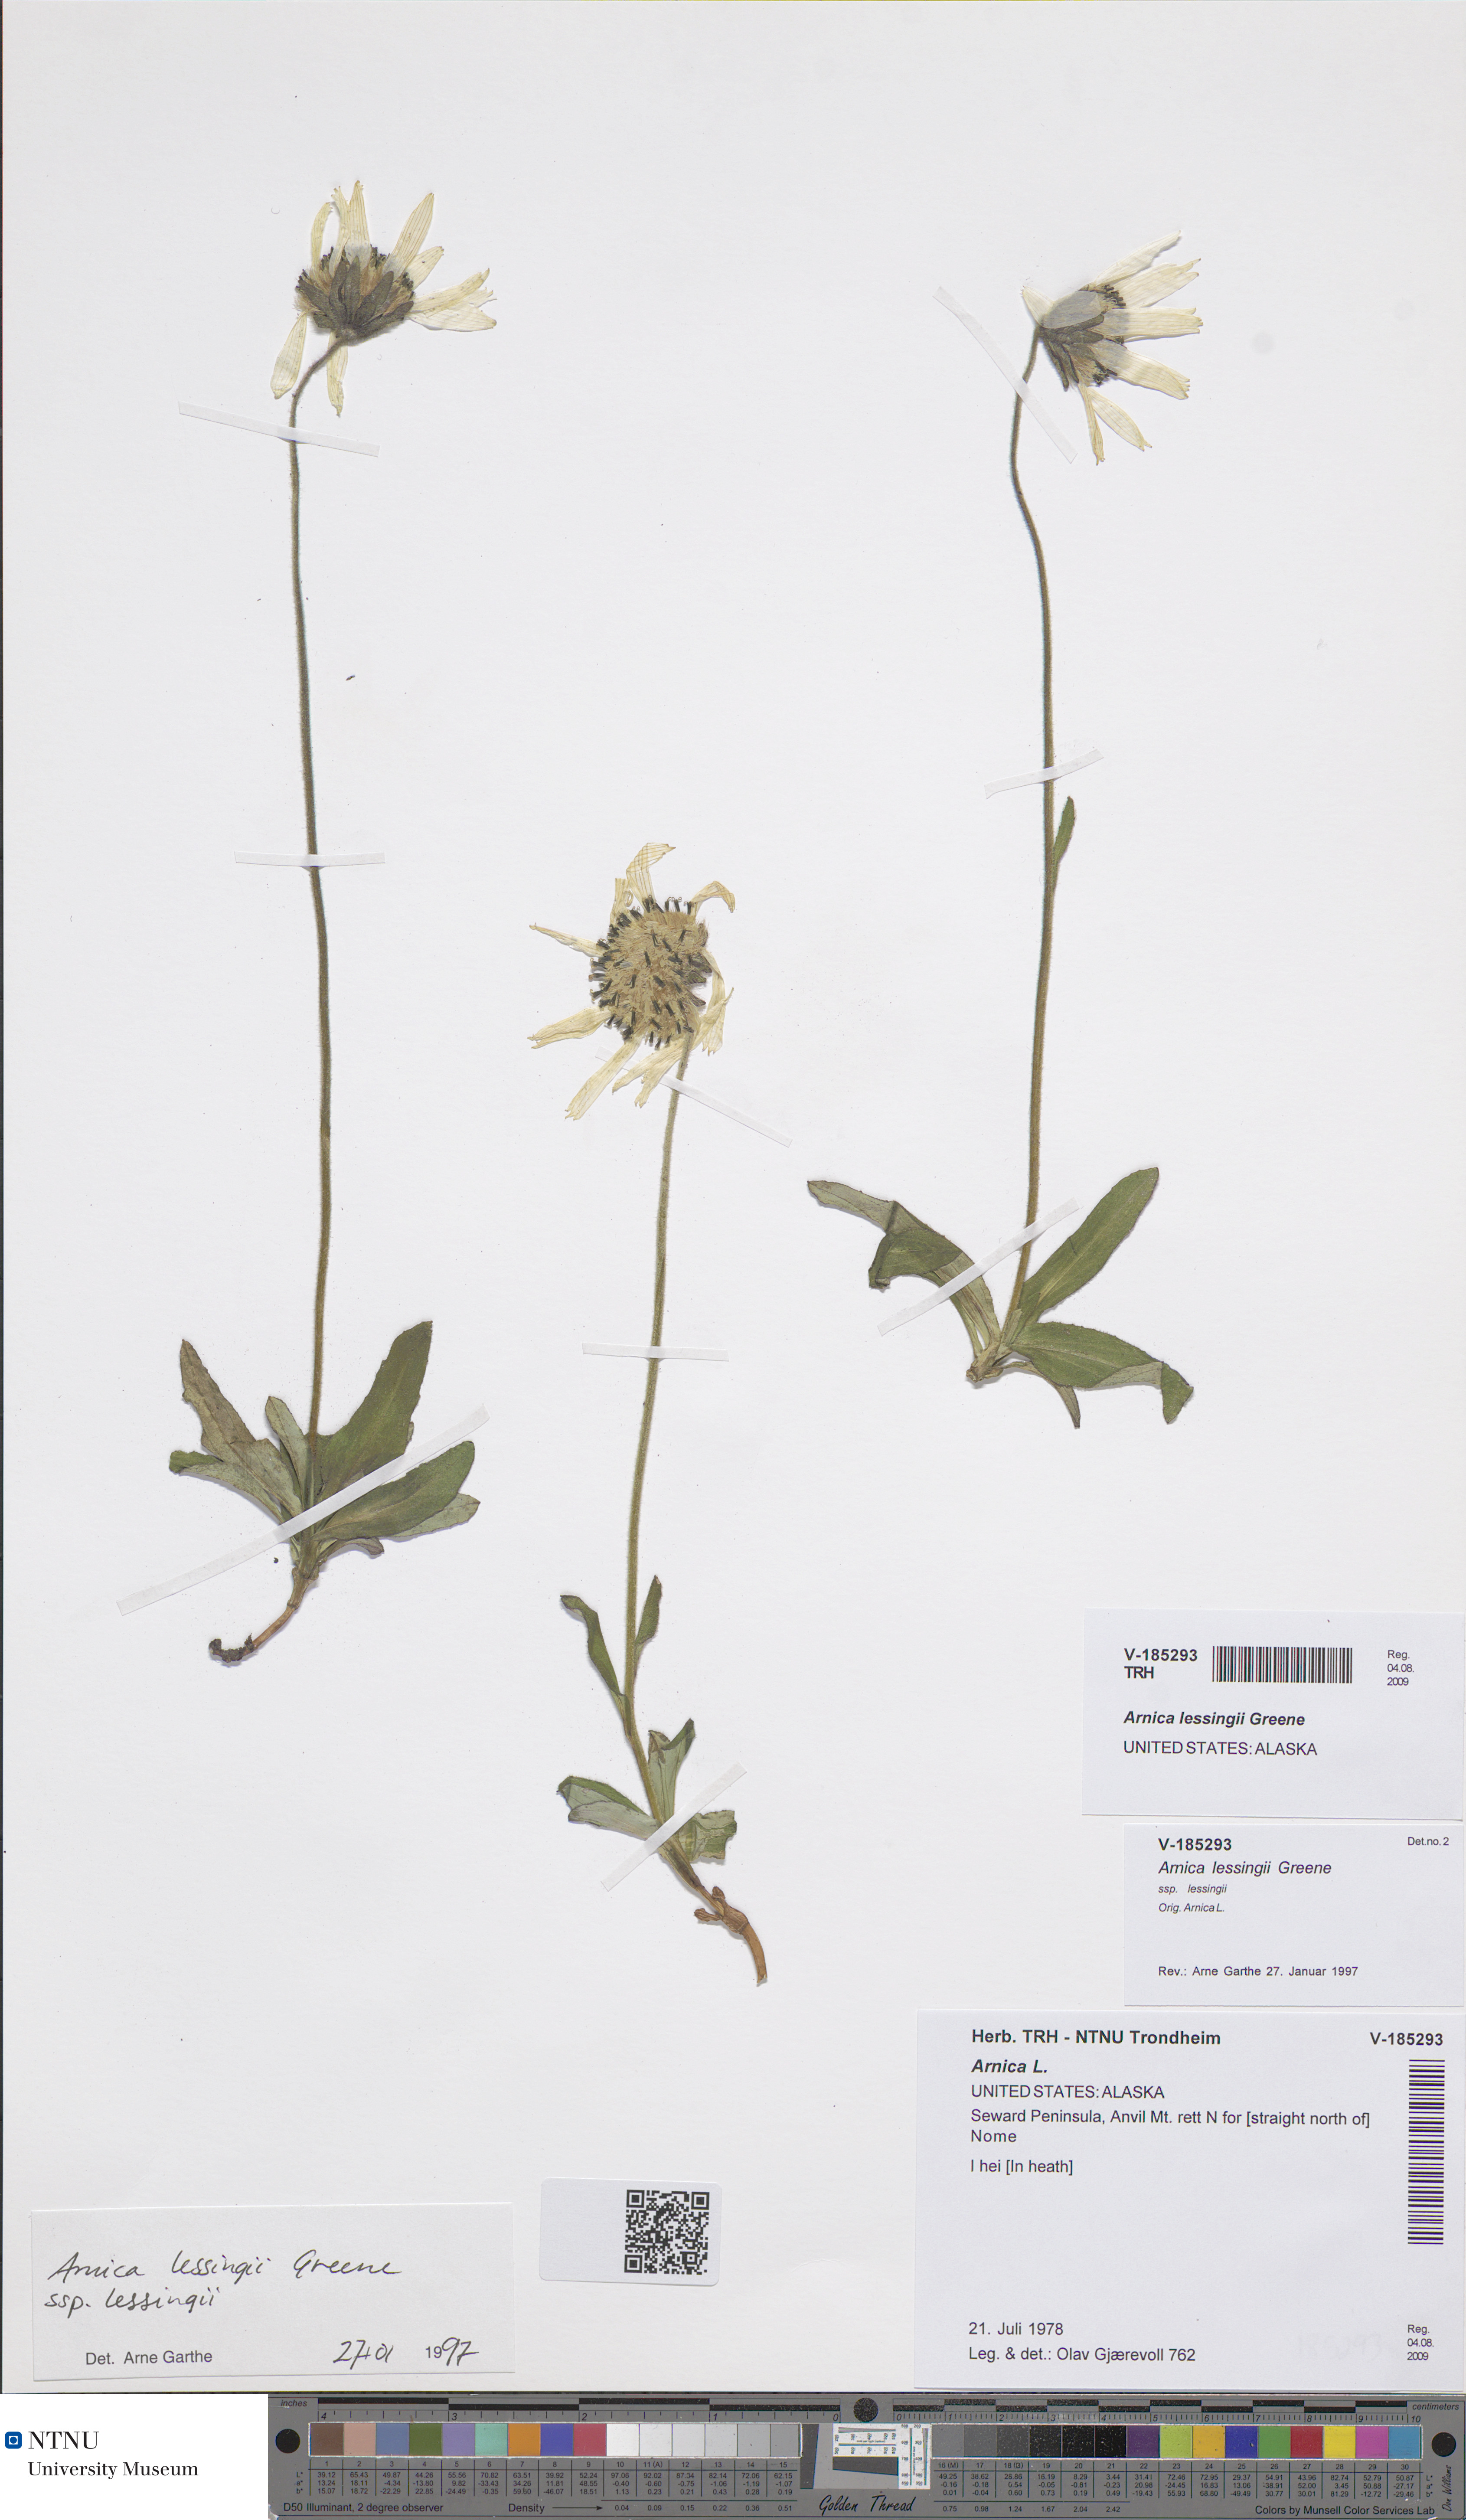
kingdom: Plantae
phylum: Tracheophyta
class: Magnoliopsida
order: Asterales
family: Asteraceae
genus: Arnica
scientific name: Arnica lessingii
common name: Nodding arnica
